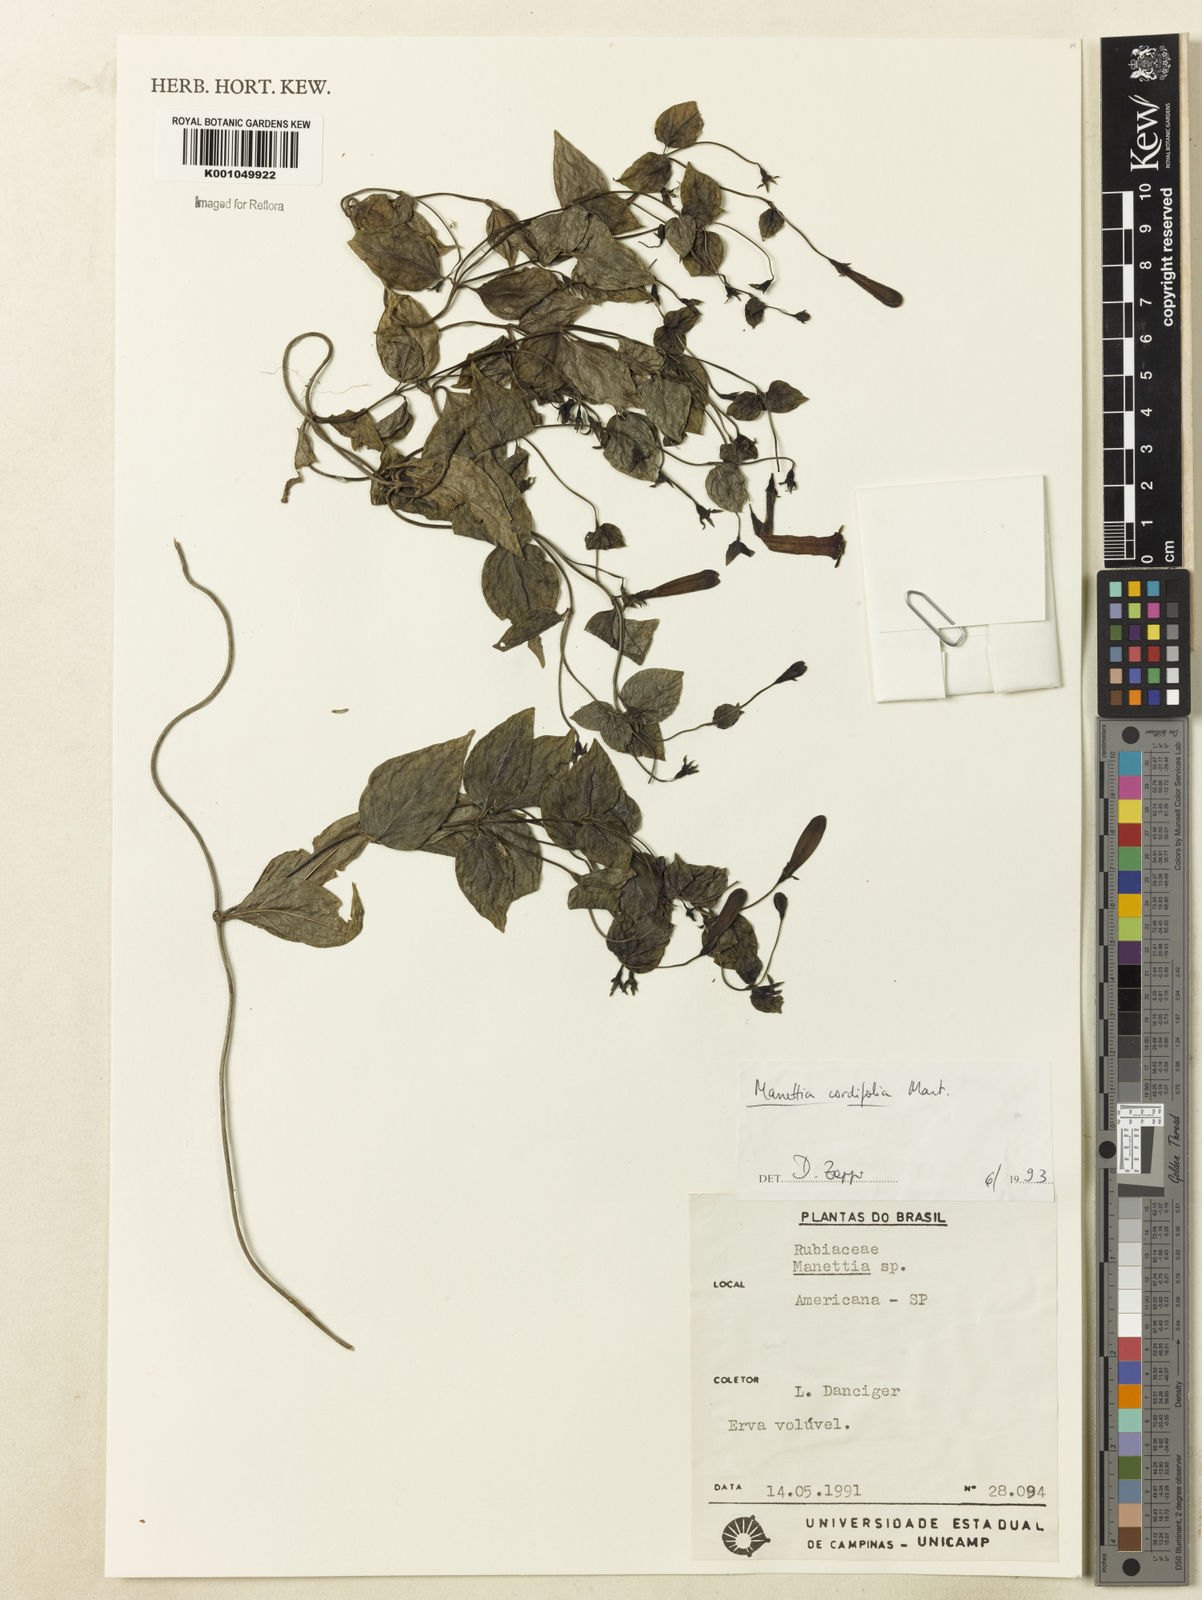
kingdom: Plantae
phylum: Tracheophyta
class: Magnoliopsida
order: Gentianales
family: Rubiaceae
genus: Manettia
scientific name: Manettia cordifolia
